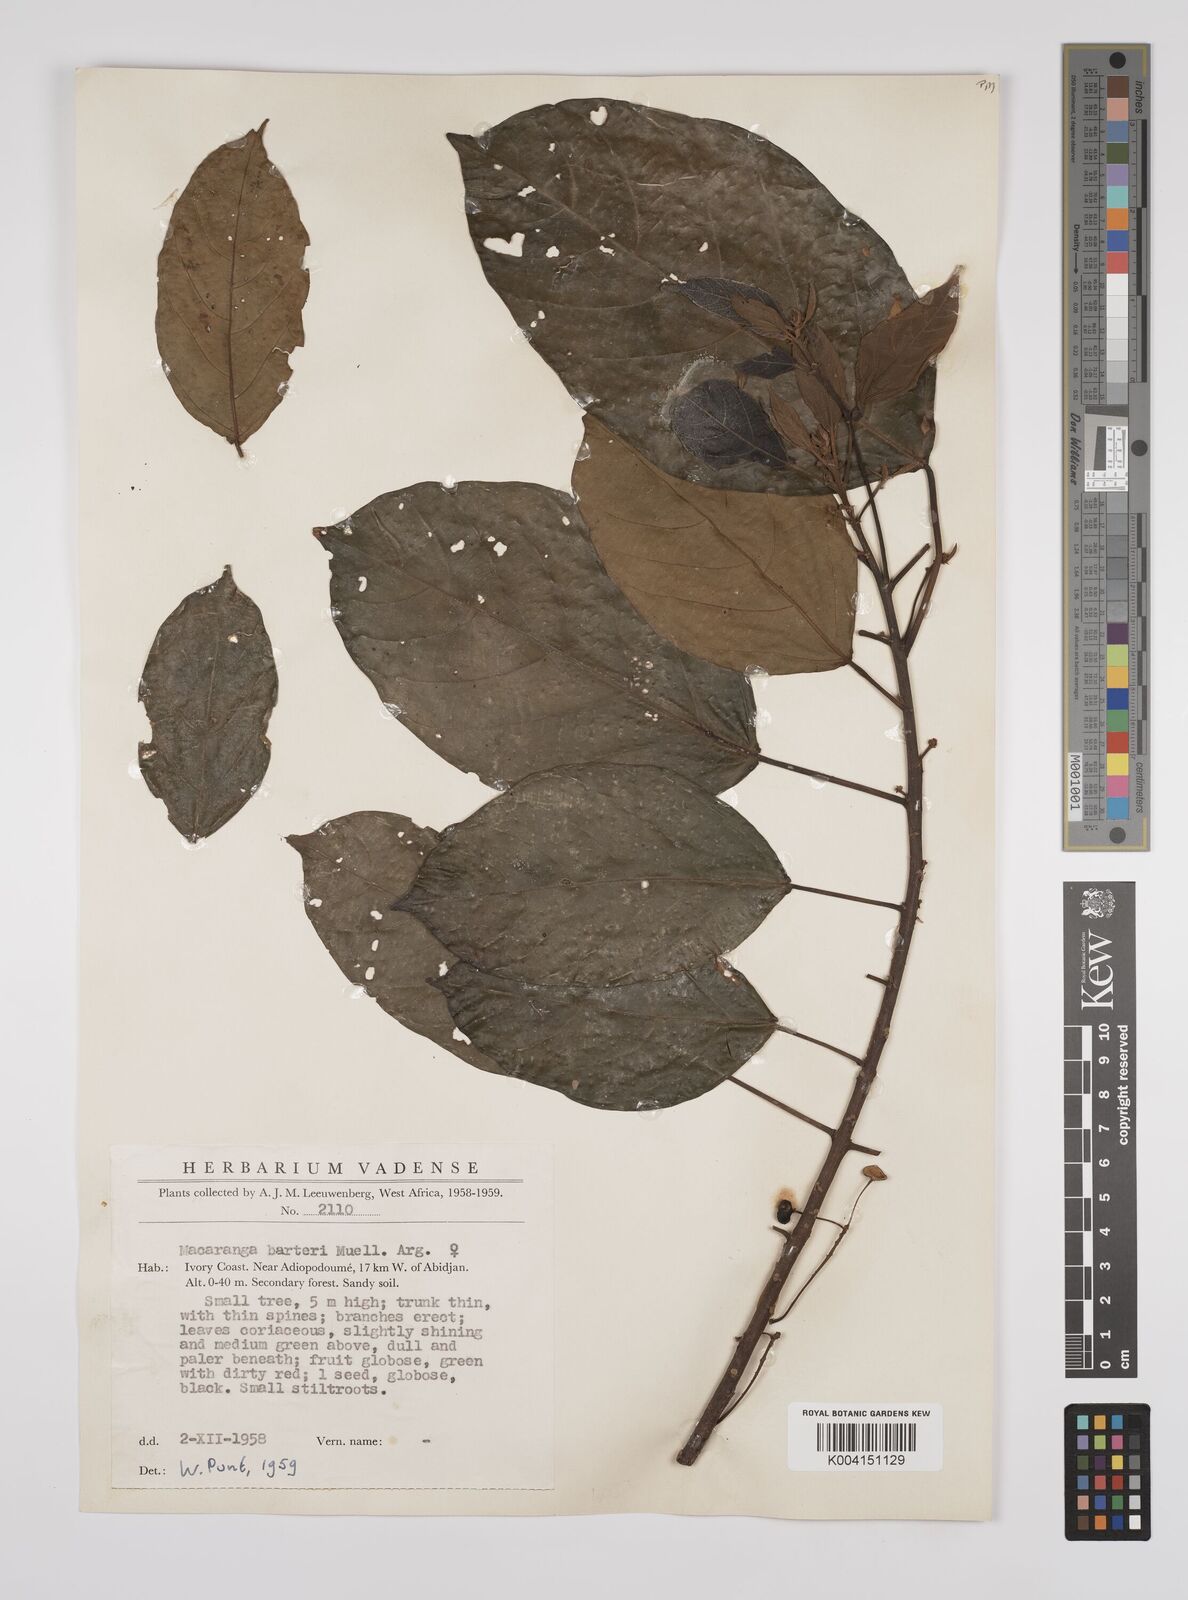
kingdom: Plantae
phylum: Tracheophyta
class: Magnoliopsida
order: Malpighiales
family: Euphorbiaceae
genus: Macaranga
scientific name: Macaranga barteri
